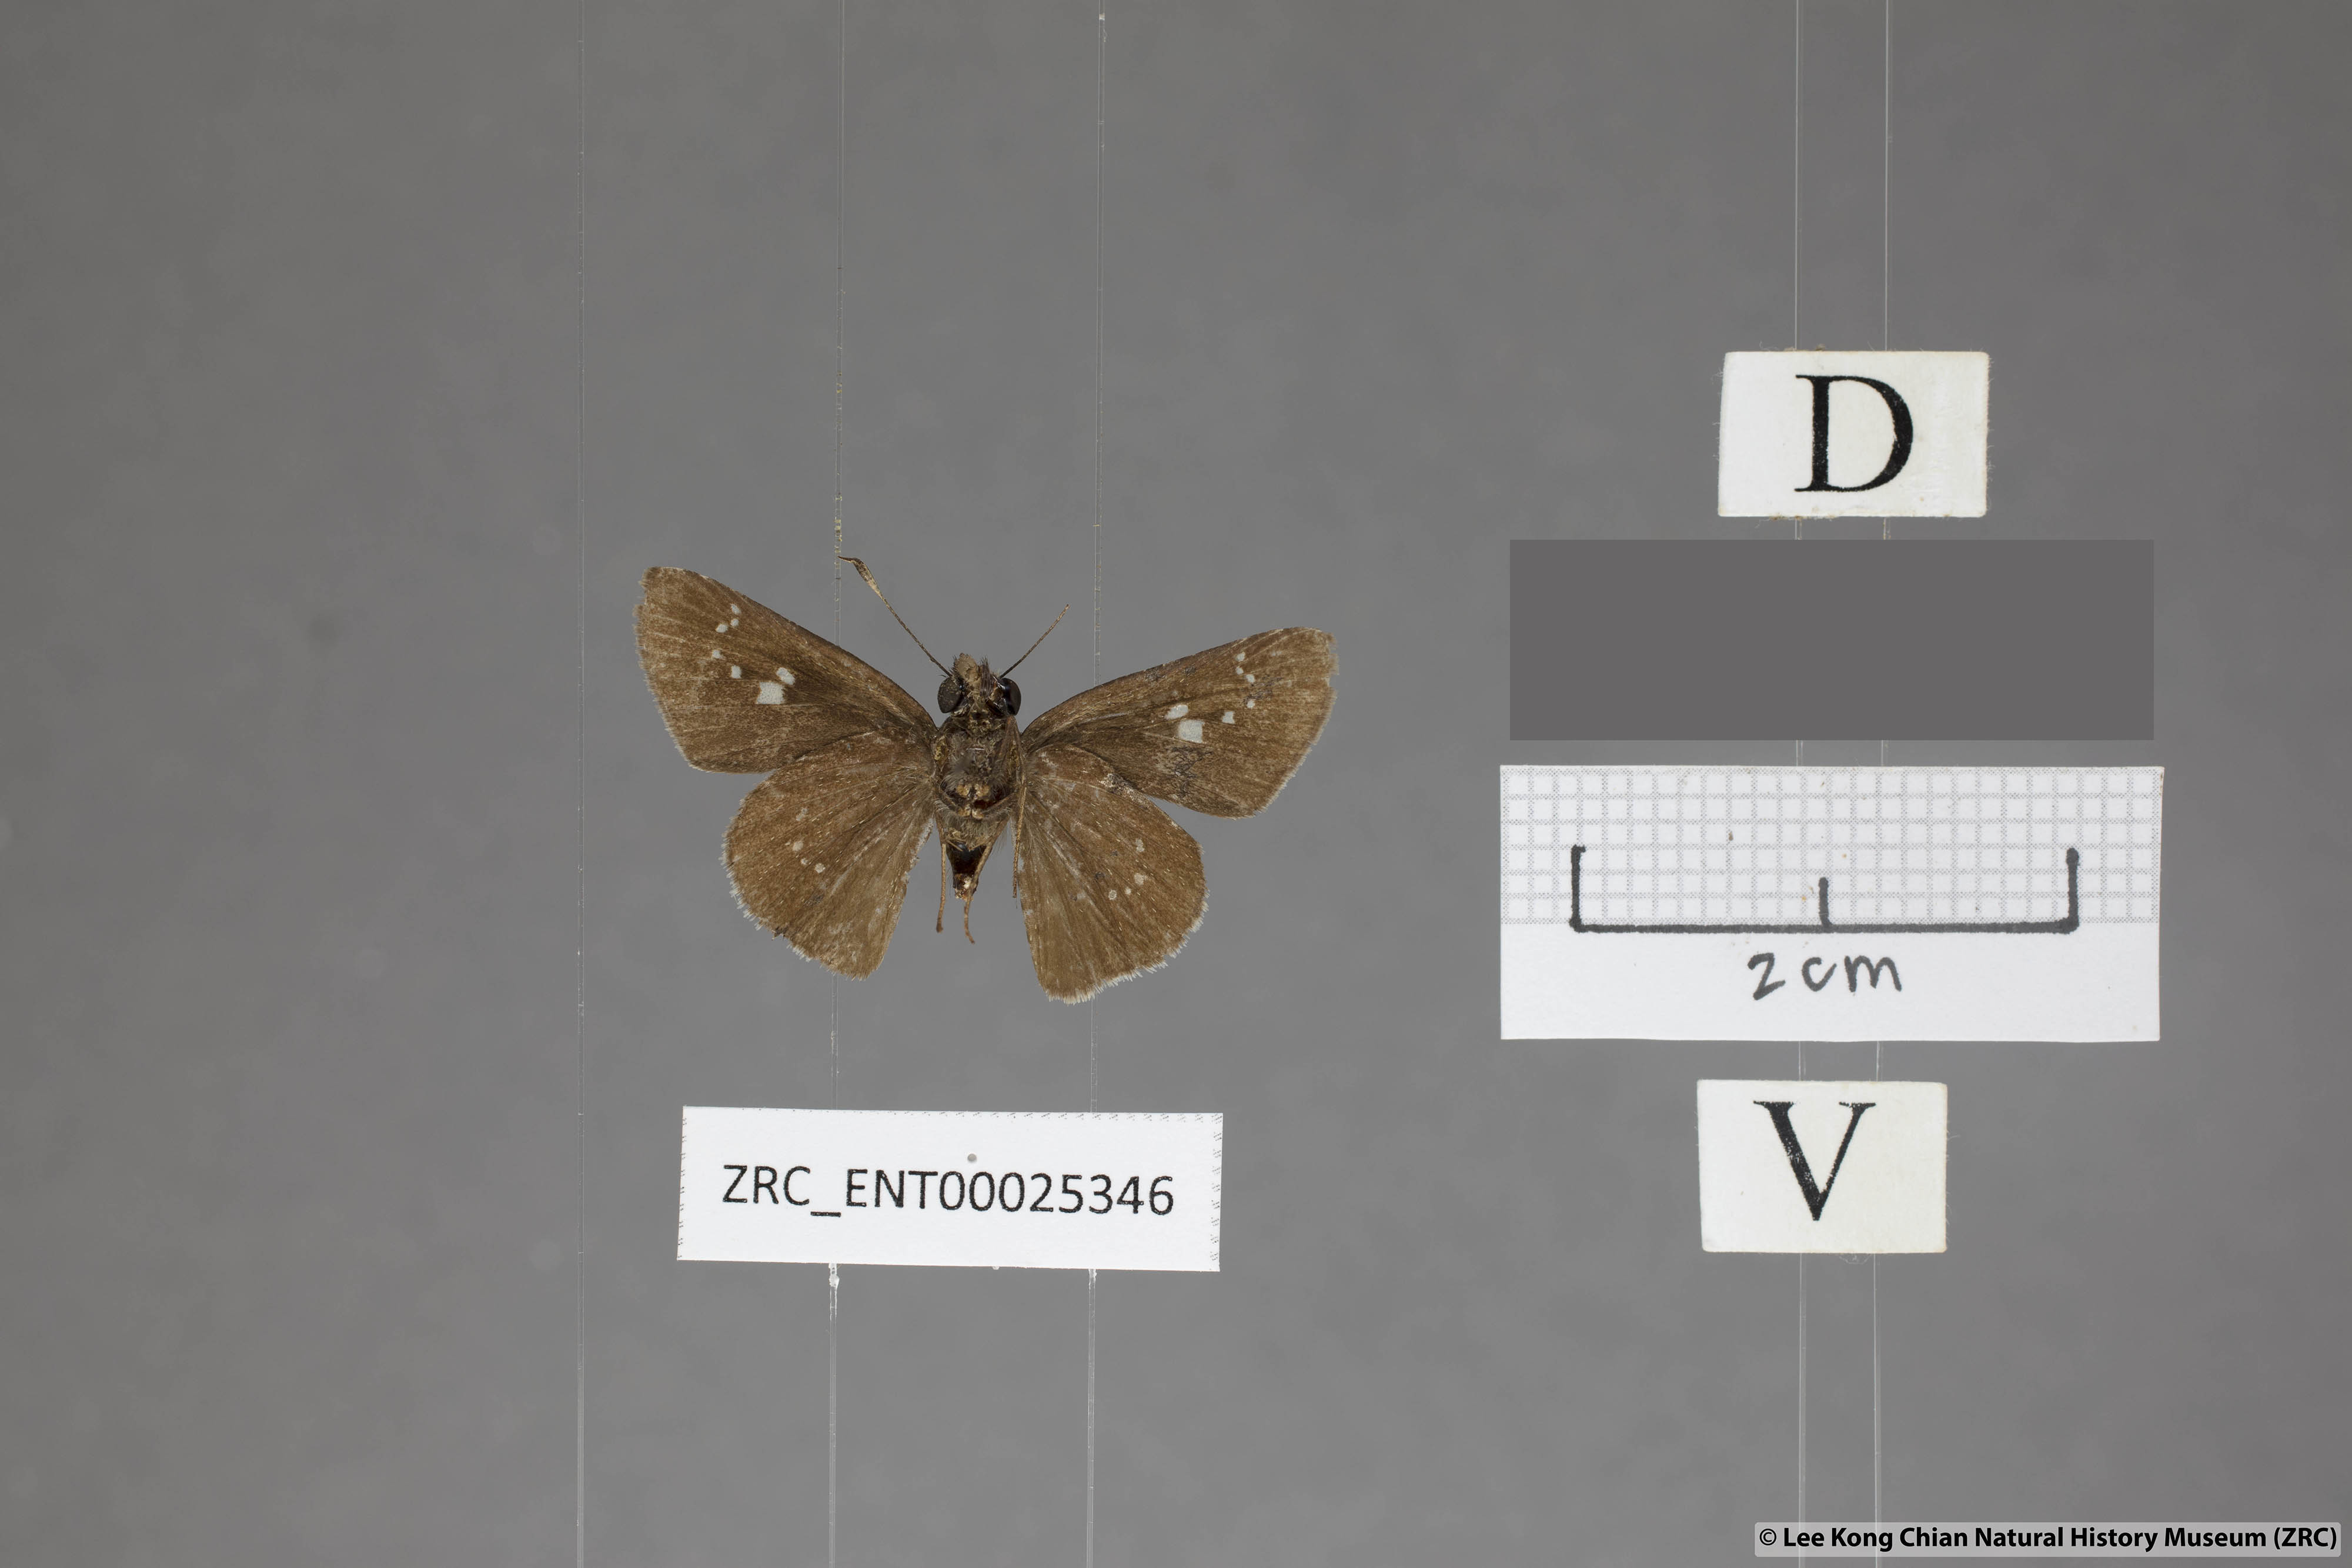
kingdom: Animalia
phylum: Arthropoda
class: Insecta
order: Lepidoptera
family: Hesperiidae
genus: Polytremis
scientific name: Polytremis minuta
